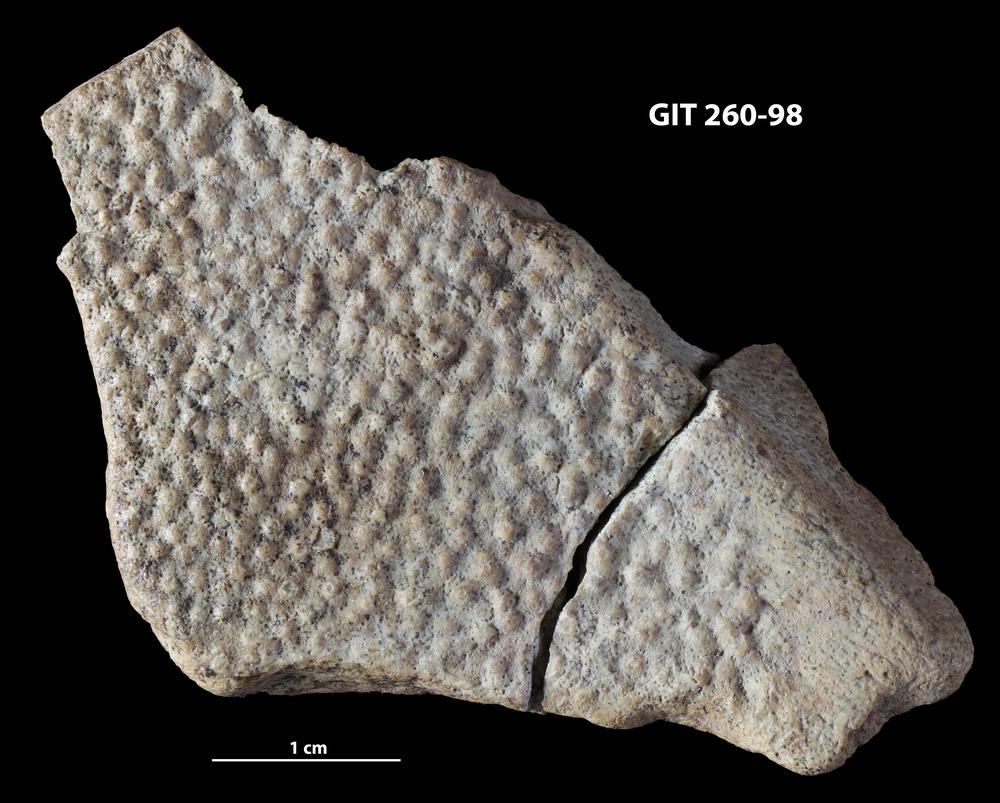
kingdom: Animalia
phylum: Chordata
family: Homostiidae
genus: Homostius
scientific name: Homostius
